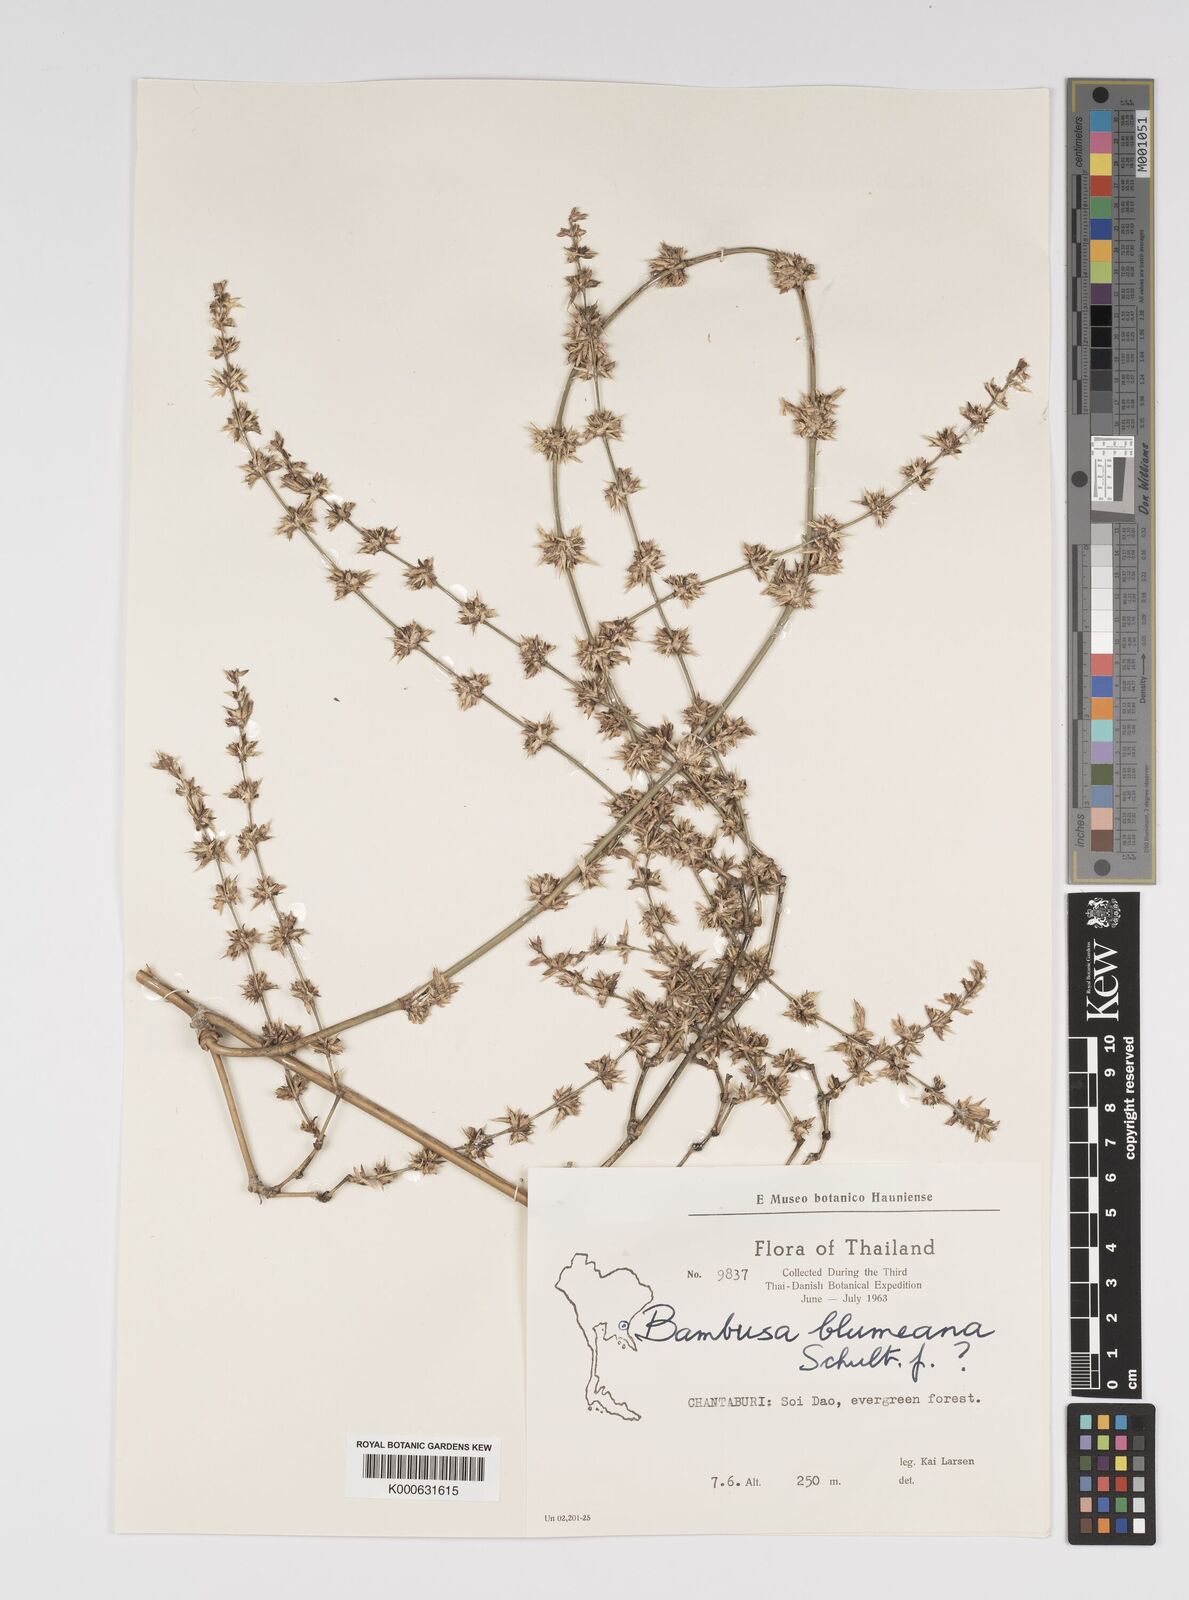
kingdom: Plantae
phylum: Tracheophyta
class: Liliopsida
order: Poales
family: Poaceae
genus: Bambusa
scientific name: Bambusa spinosa
